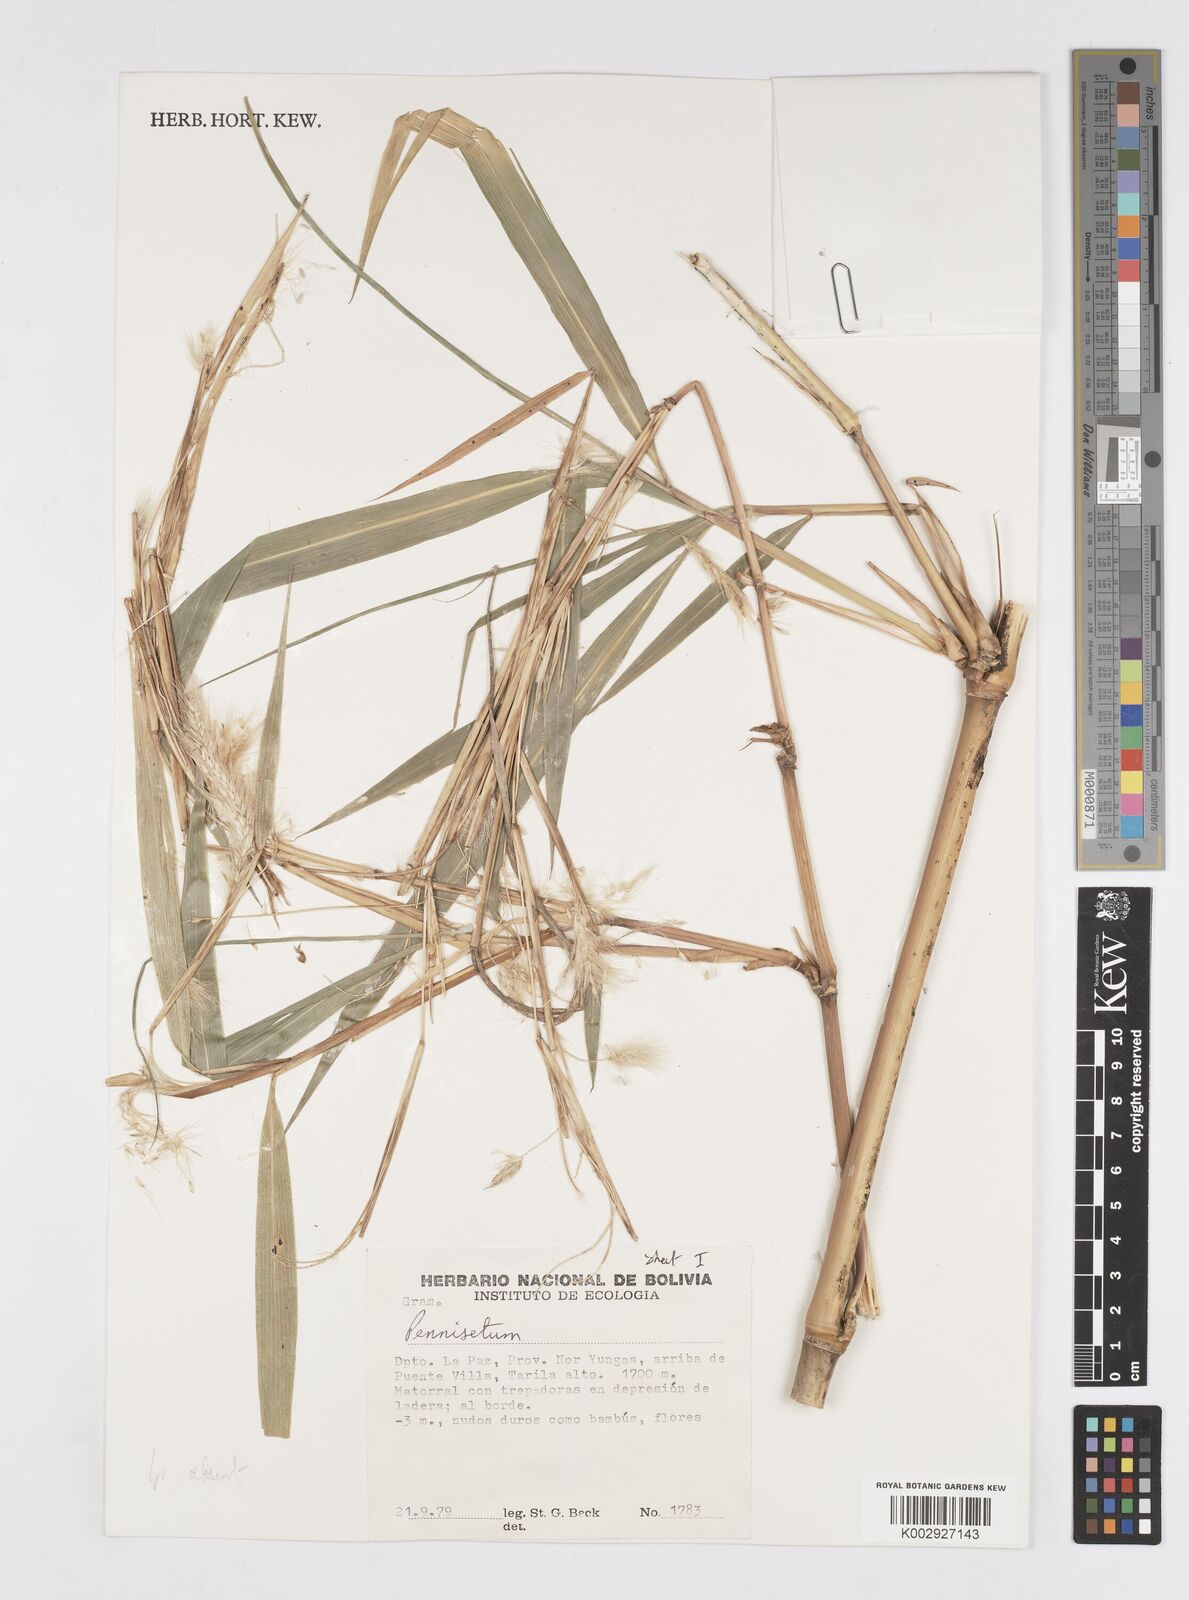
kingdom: Plantae
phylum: Tracheophyta
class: Liliopsida
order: Poales
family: Poaceae
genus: Cenchrus
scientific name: Cenchrus tristachyus
